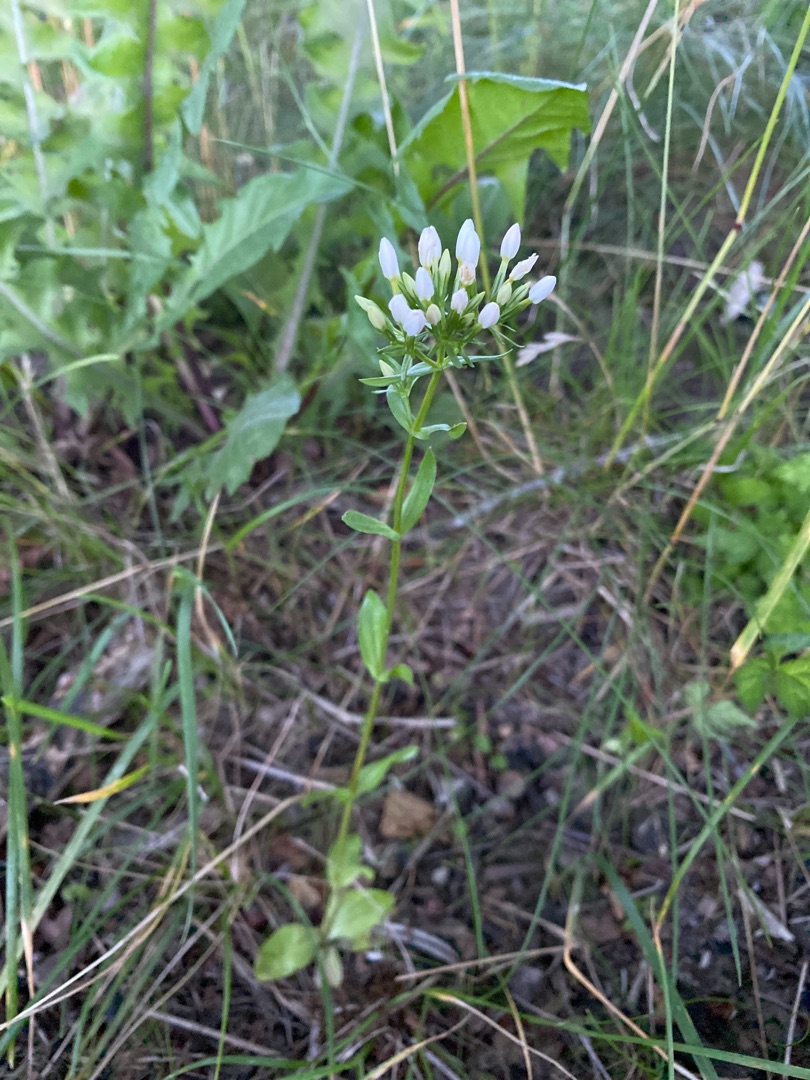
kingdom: Plantae
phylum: Tracheophyta
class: Magnoliopsida
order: Gentianales
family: Gentianaceae
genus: Centaurium
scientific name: Centaurium erythraea
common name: Mark-tusindgylden
